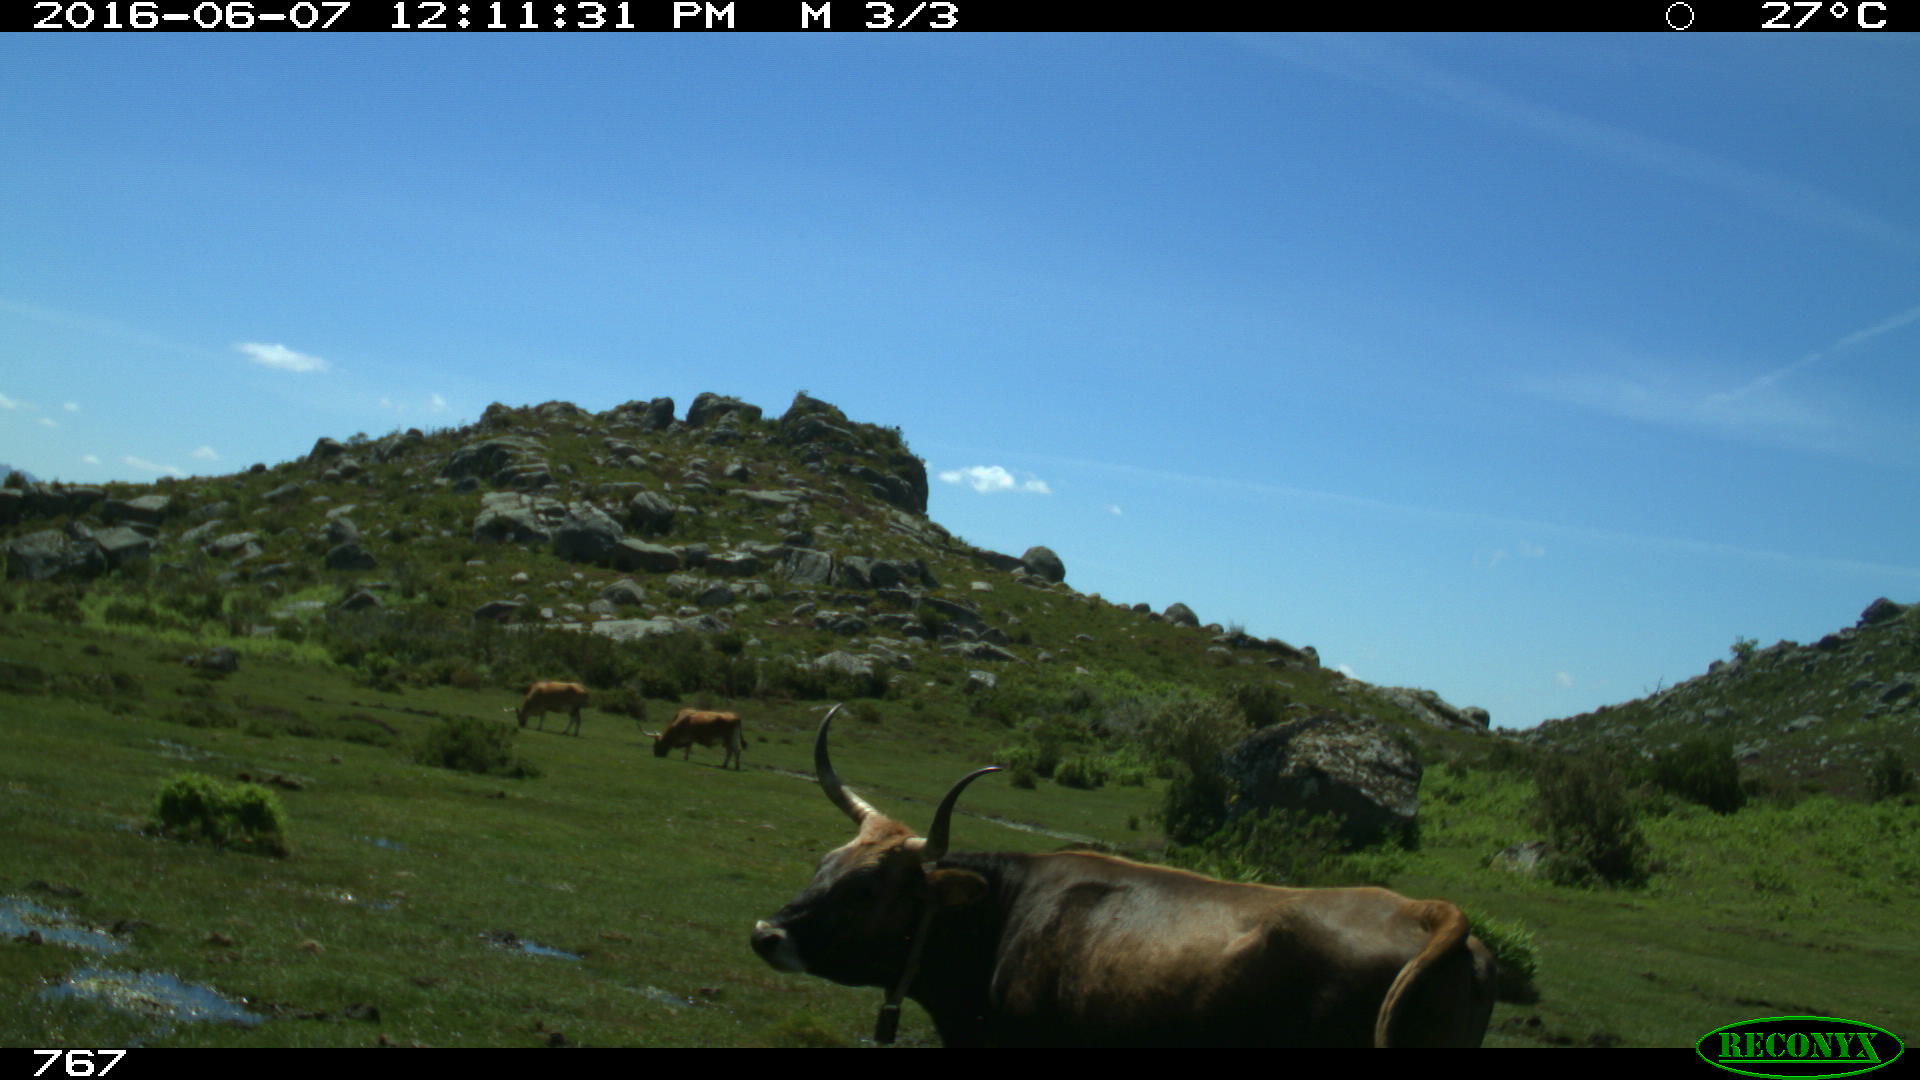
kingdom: Animalia
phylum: Chordata
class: Mammalia
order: Artiodactyla
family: Bovidae
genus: Bos
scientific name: Bos taurus
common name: Domesticated cattle
